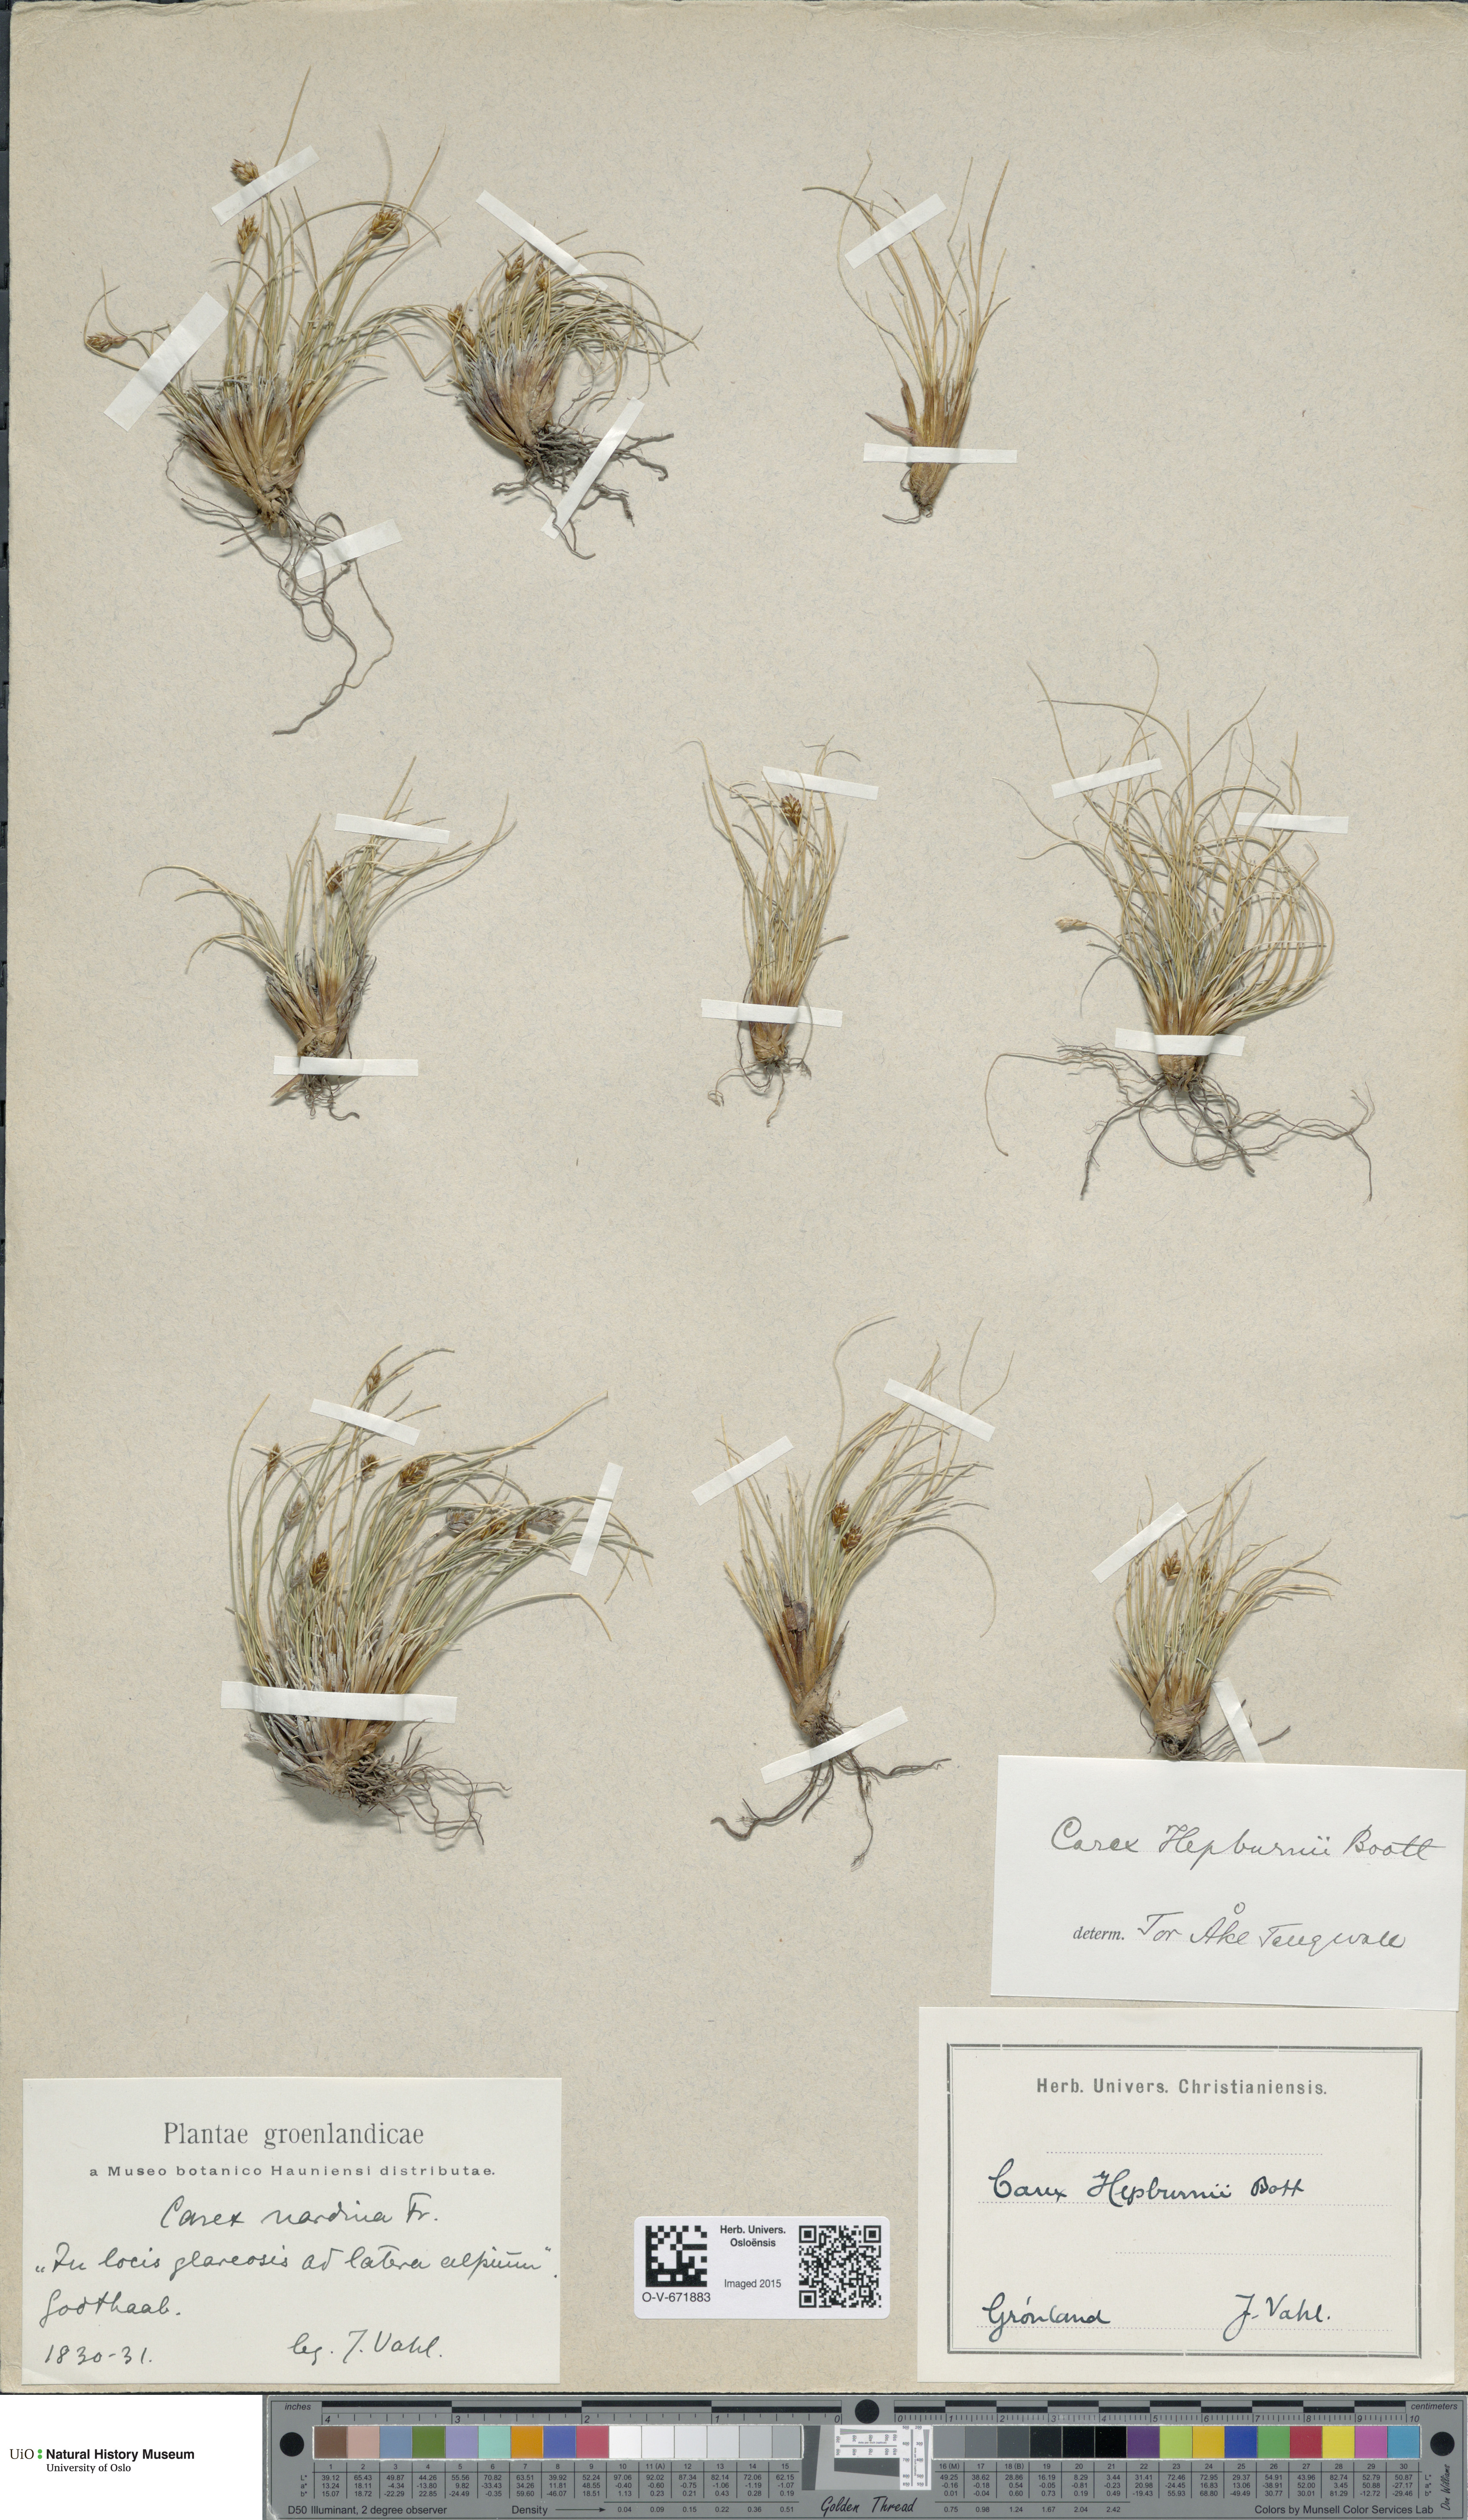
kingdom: Plantae
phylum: Tracheophyta
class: Liliopsida
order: Poales
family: Cyperaceae
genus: Carex
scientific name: Carex nardina
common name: Nard sedge
